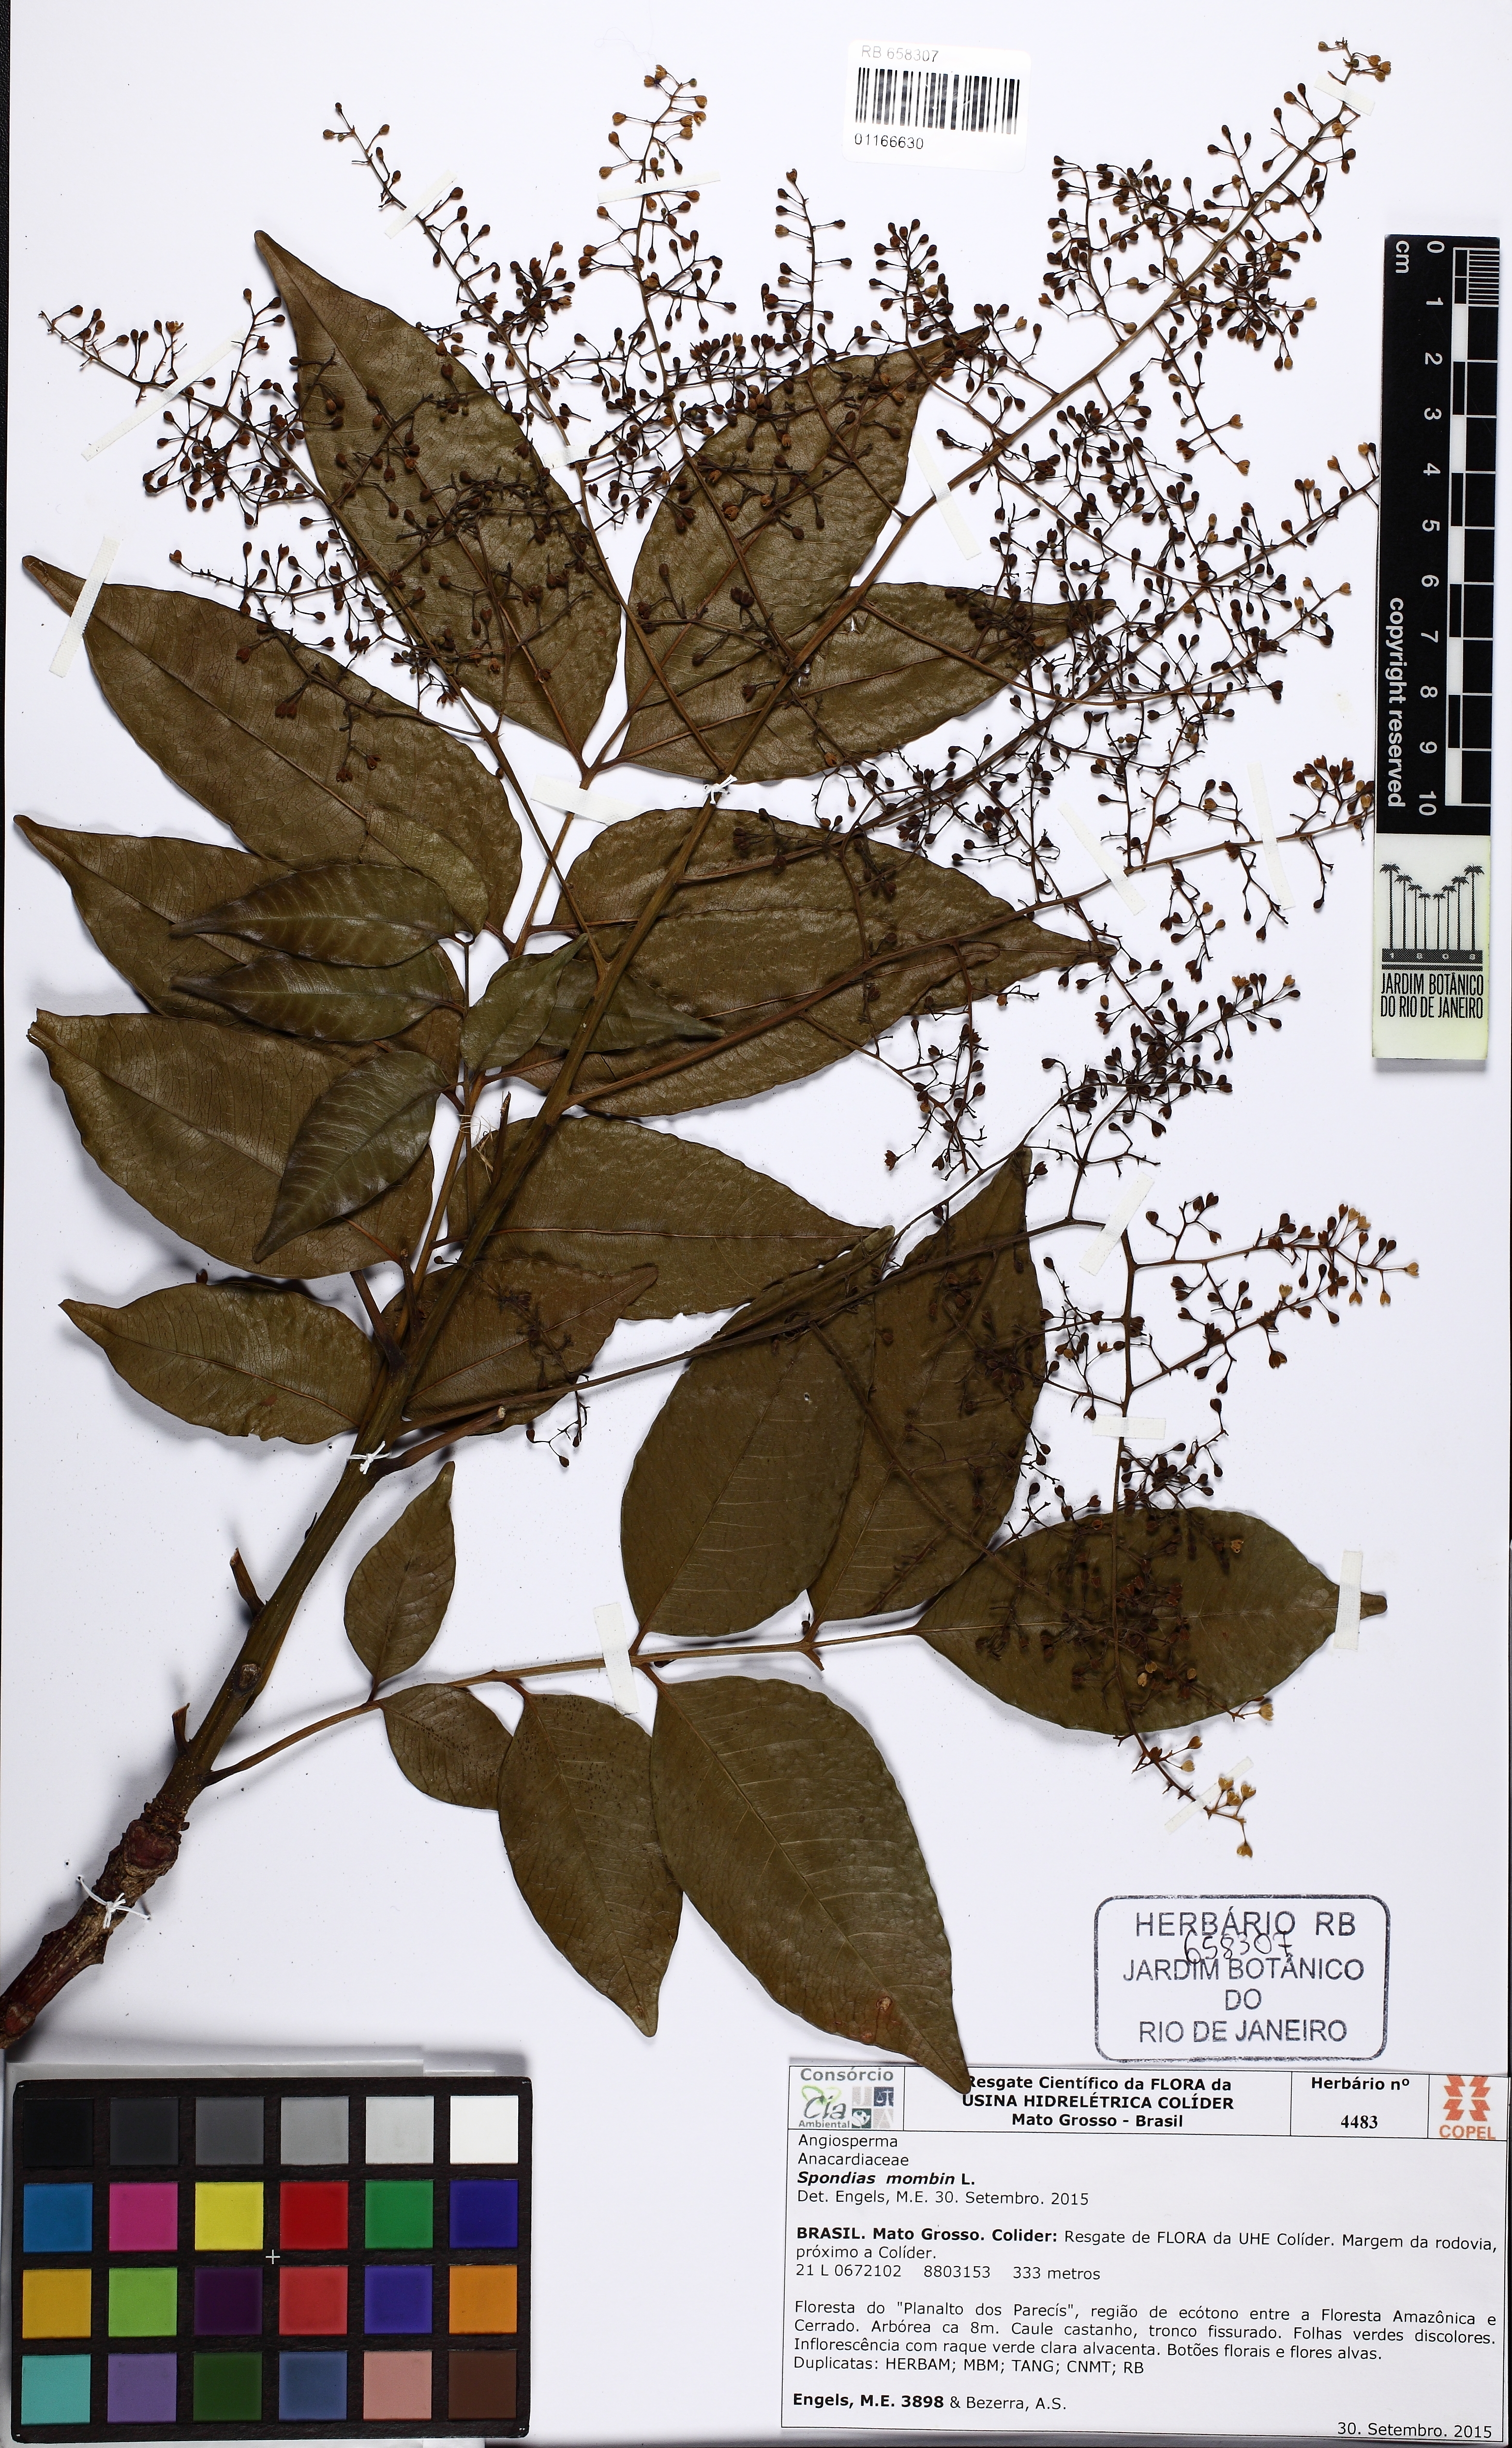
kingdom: Plantae
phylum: Tracheophyta
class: Magnoliopsida
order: Sapindales
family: Anacardiaceae
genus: Spondias
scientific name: Spondias mombin
